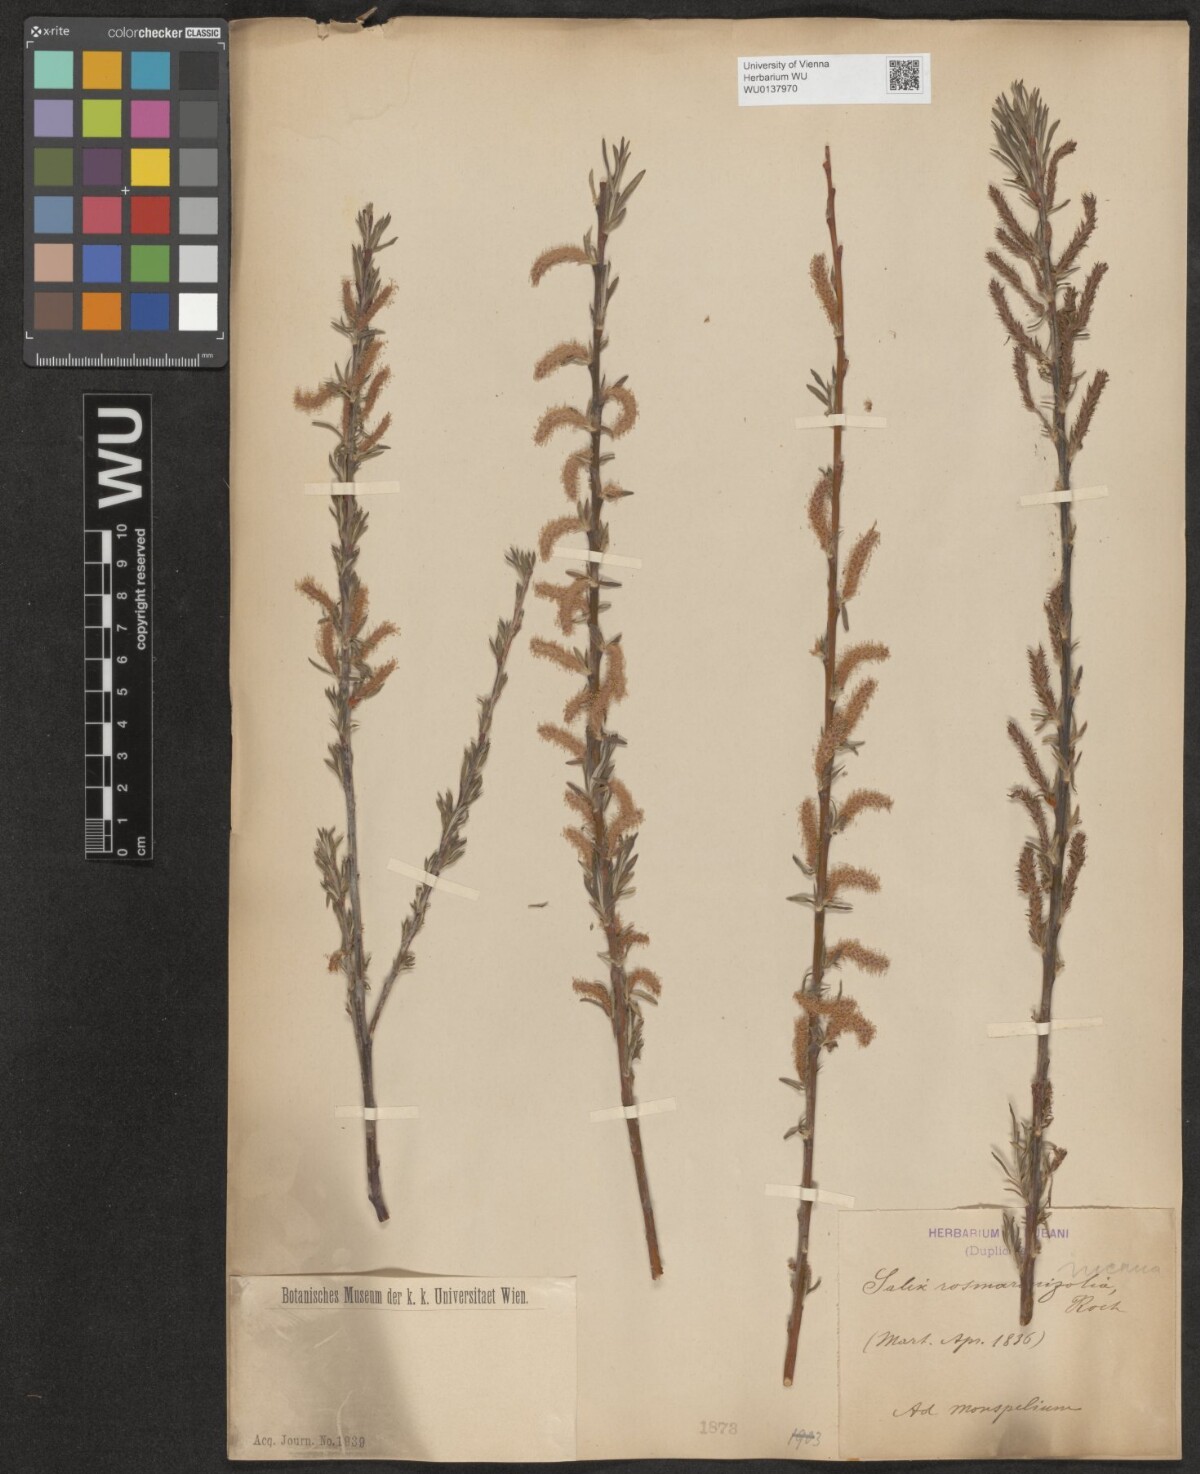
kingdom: Plantae
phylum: Tracheophyta
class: Magnoliopsida
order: Malpighiales
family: Salicaceae
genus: Salix
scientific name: Salix eleagnos
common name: Elaeagnus willow
